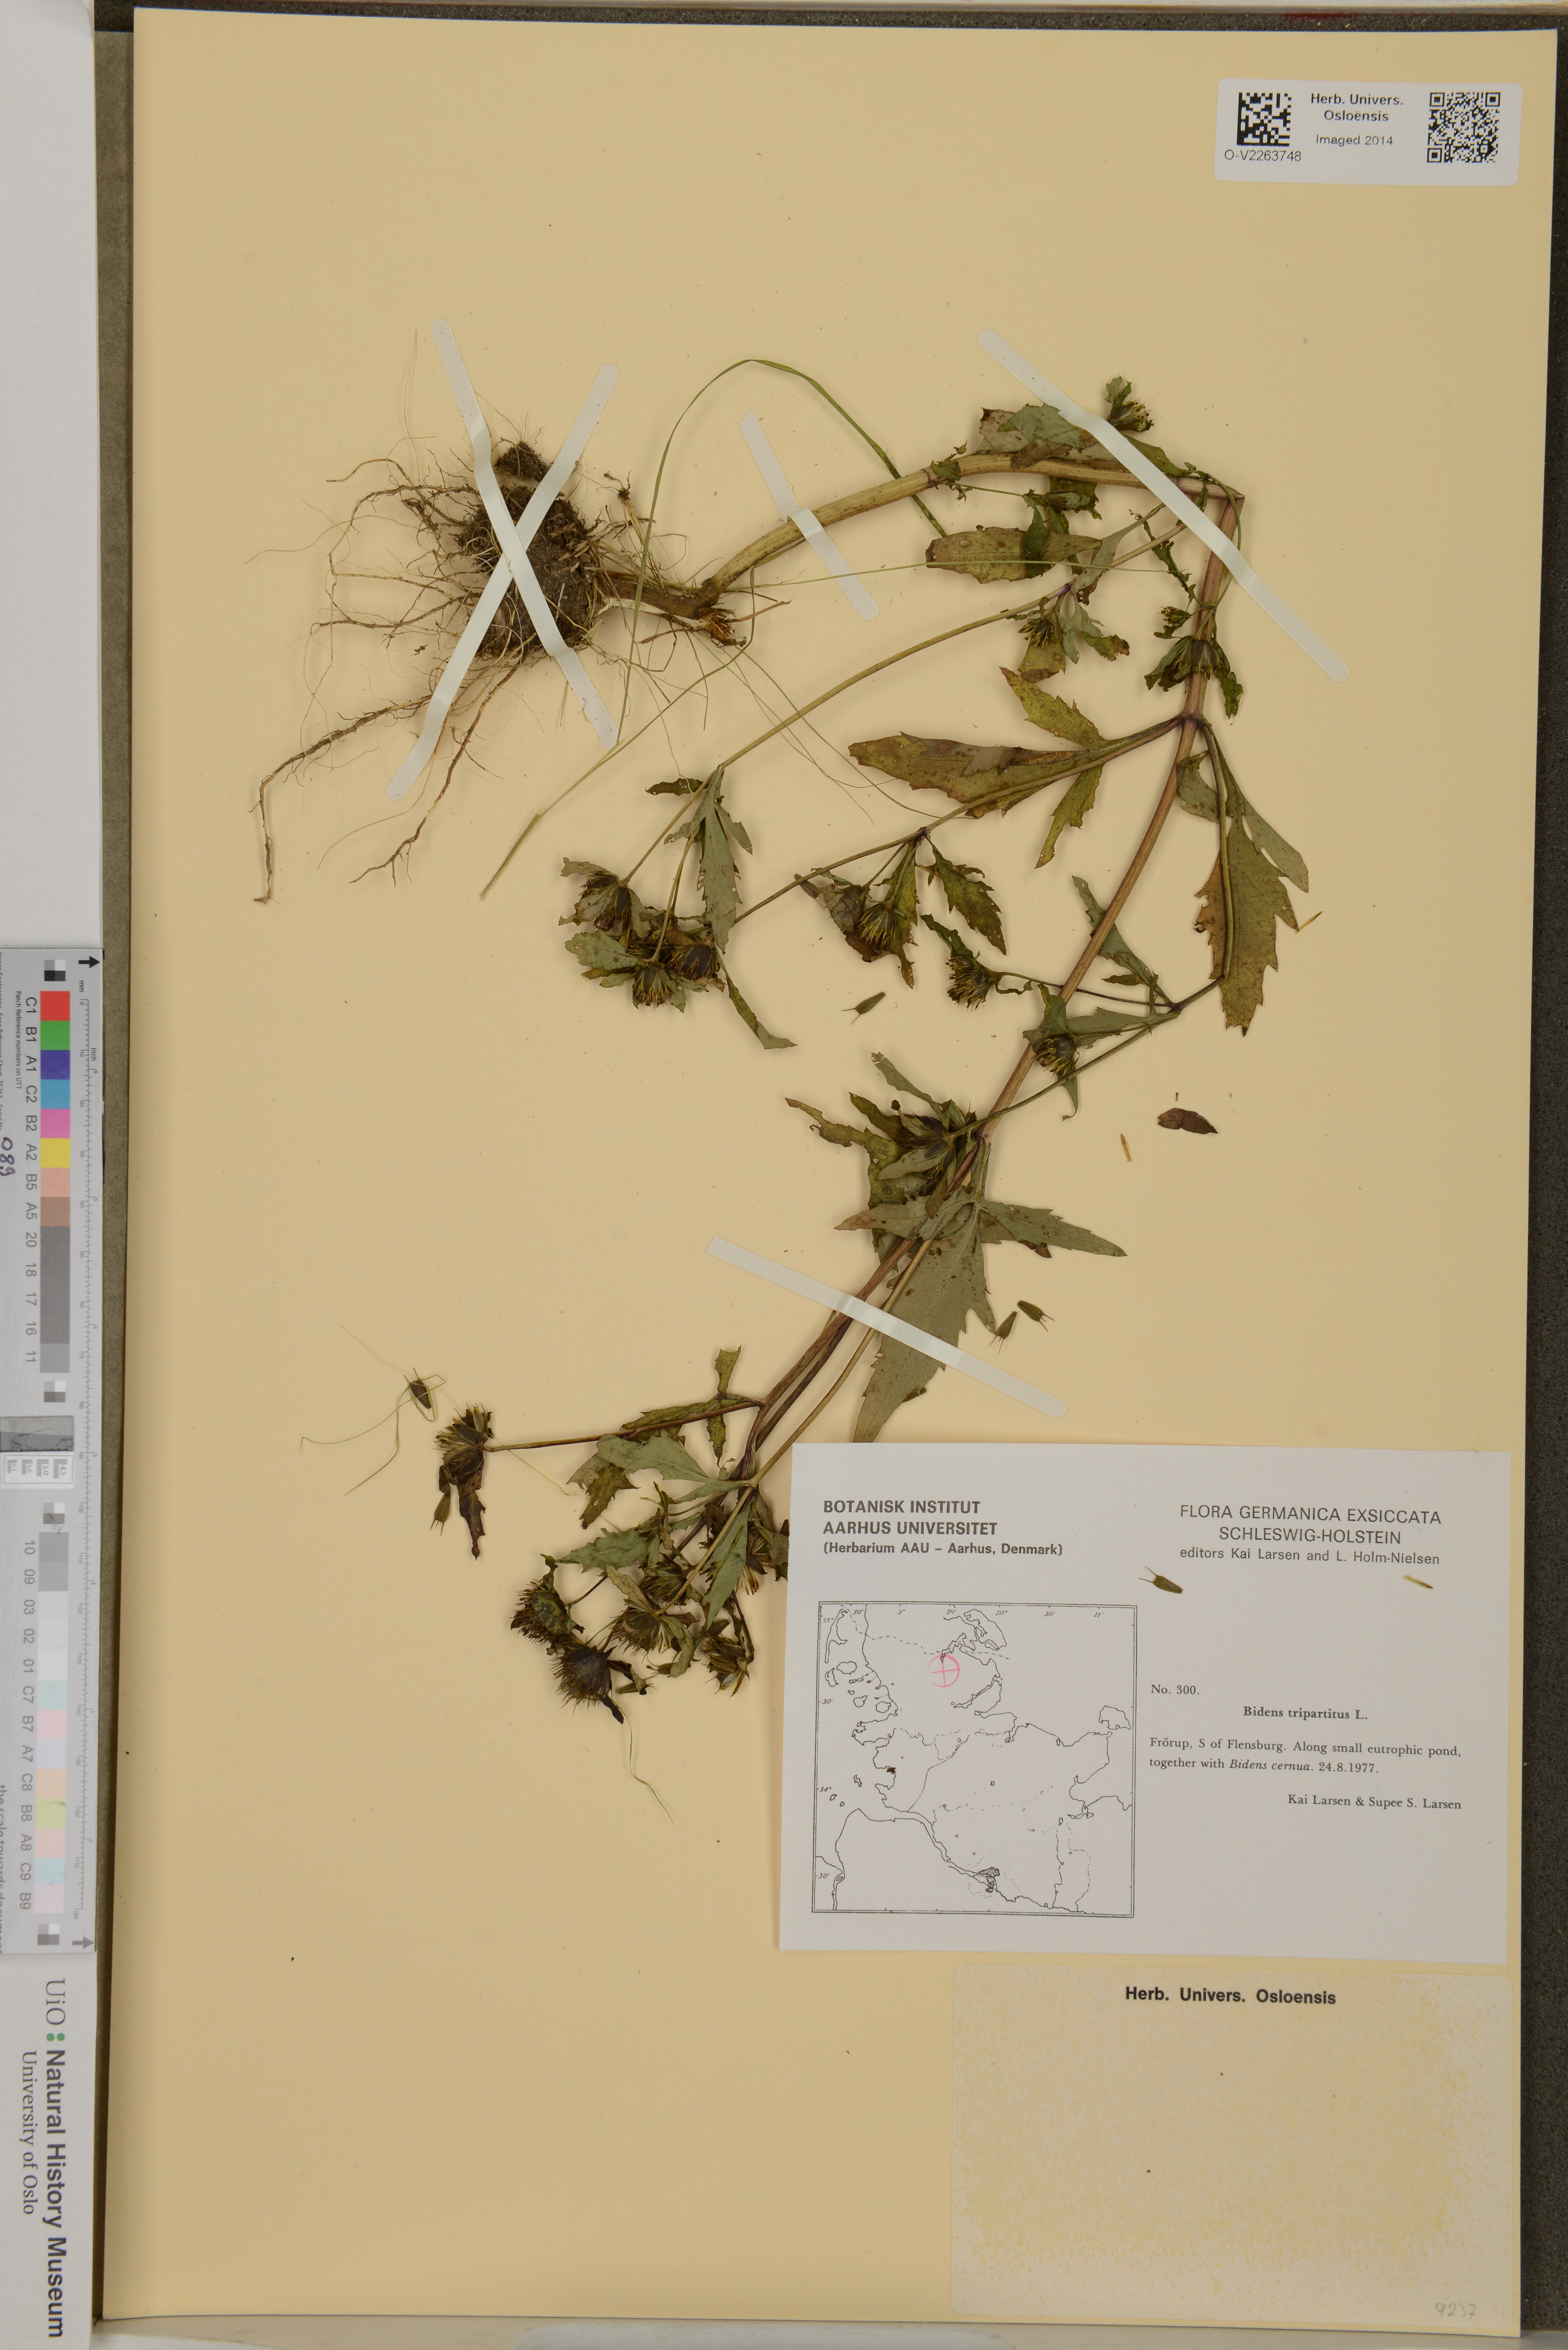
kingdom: Plantae
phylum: Tracheophyta
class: Magnoliopsida
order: Asterales
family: Asteraceae
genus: Bidens
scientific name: Bidens tripartita
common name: Trifid bur-marigold
